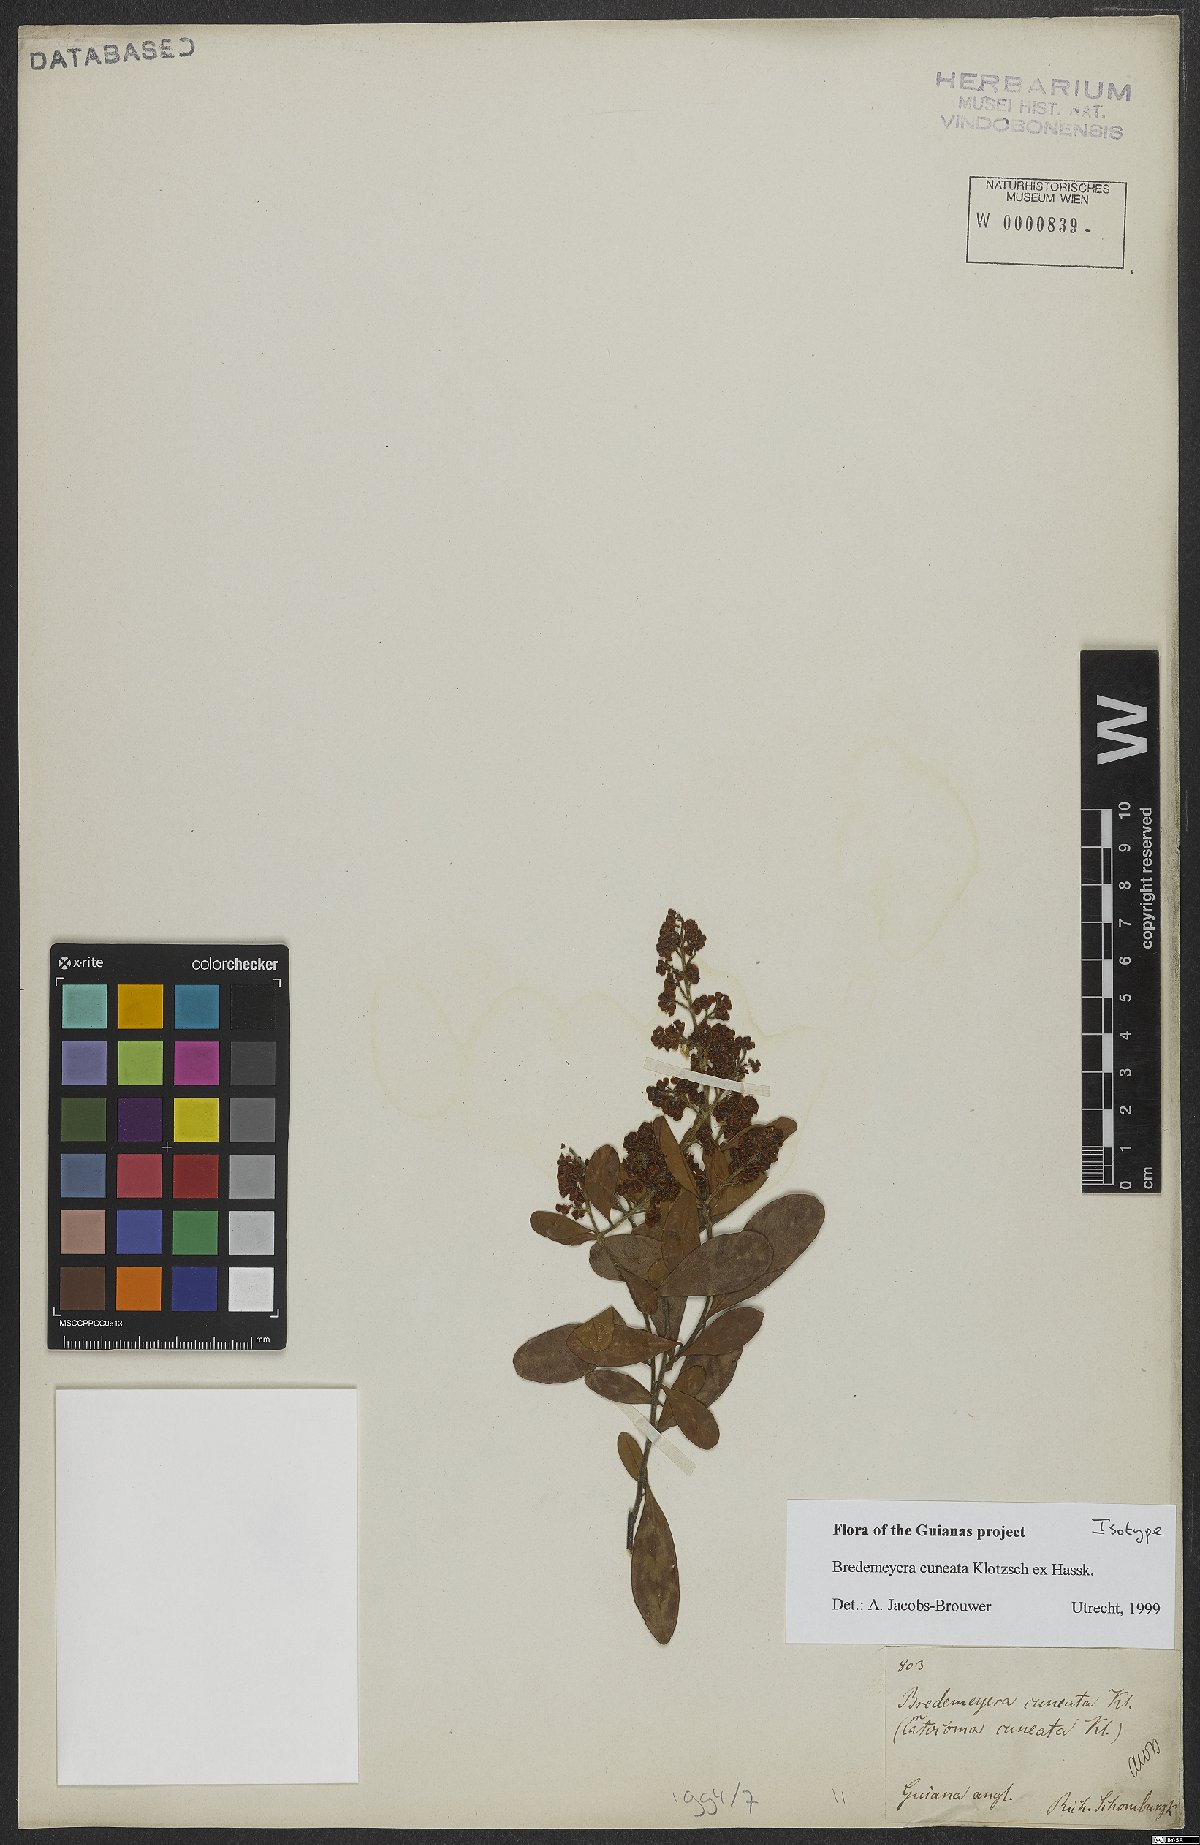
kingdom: Plantae
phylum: Tracheophyta
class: Magnoliopsida
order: Fabales
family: Polygalaceae
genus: Bredemeyera
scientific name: Bredemeyera cuneata
